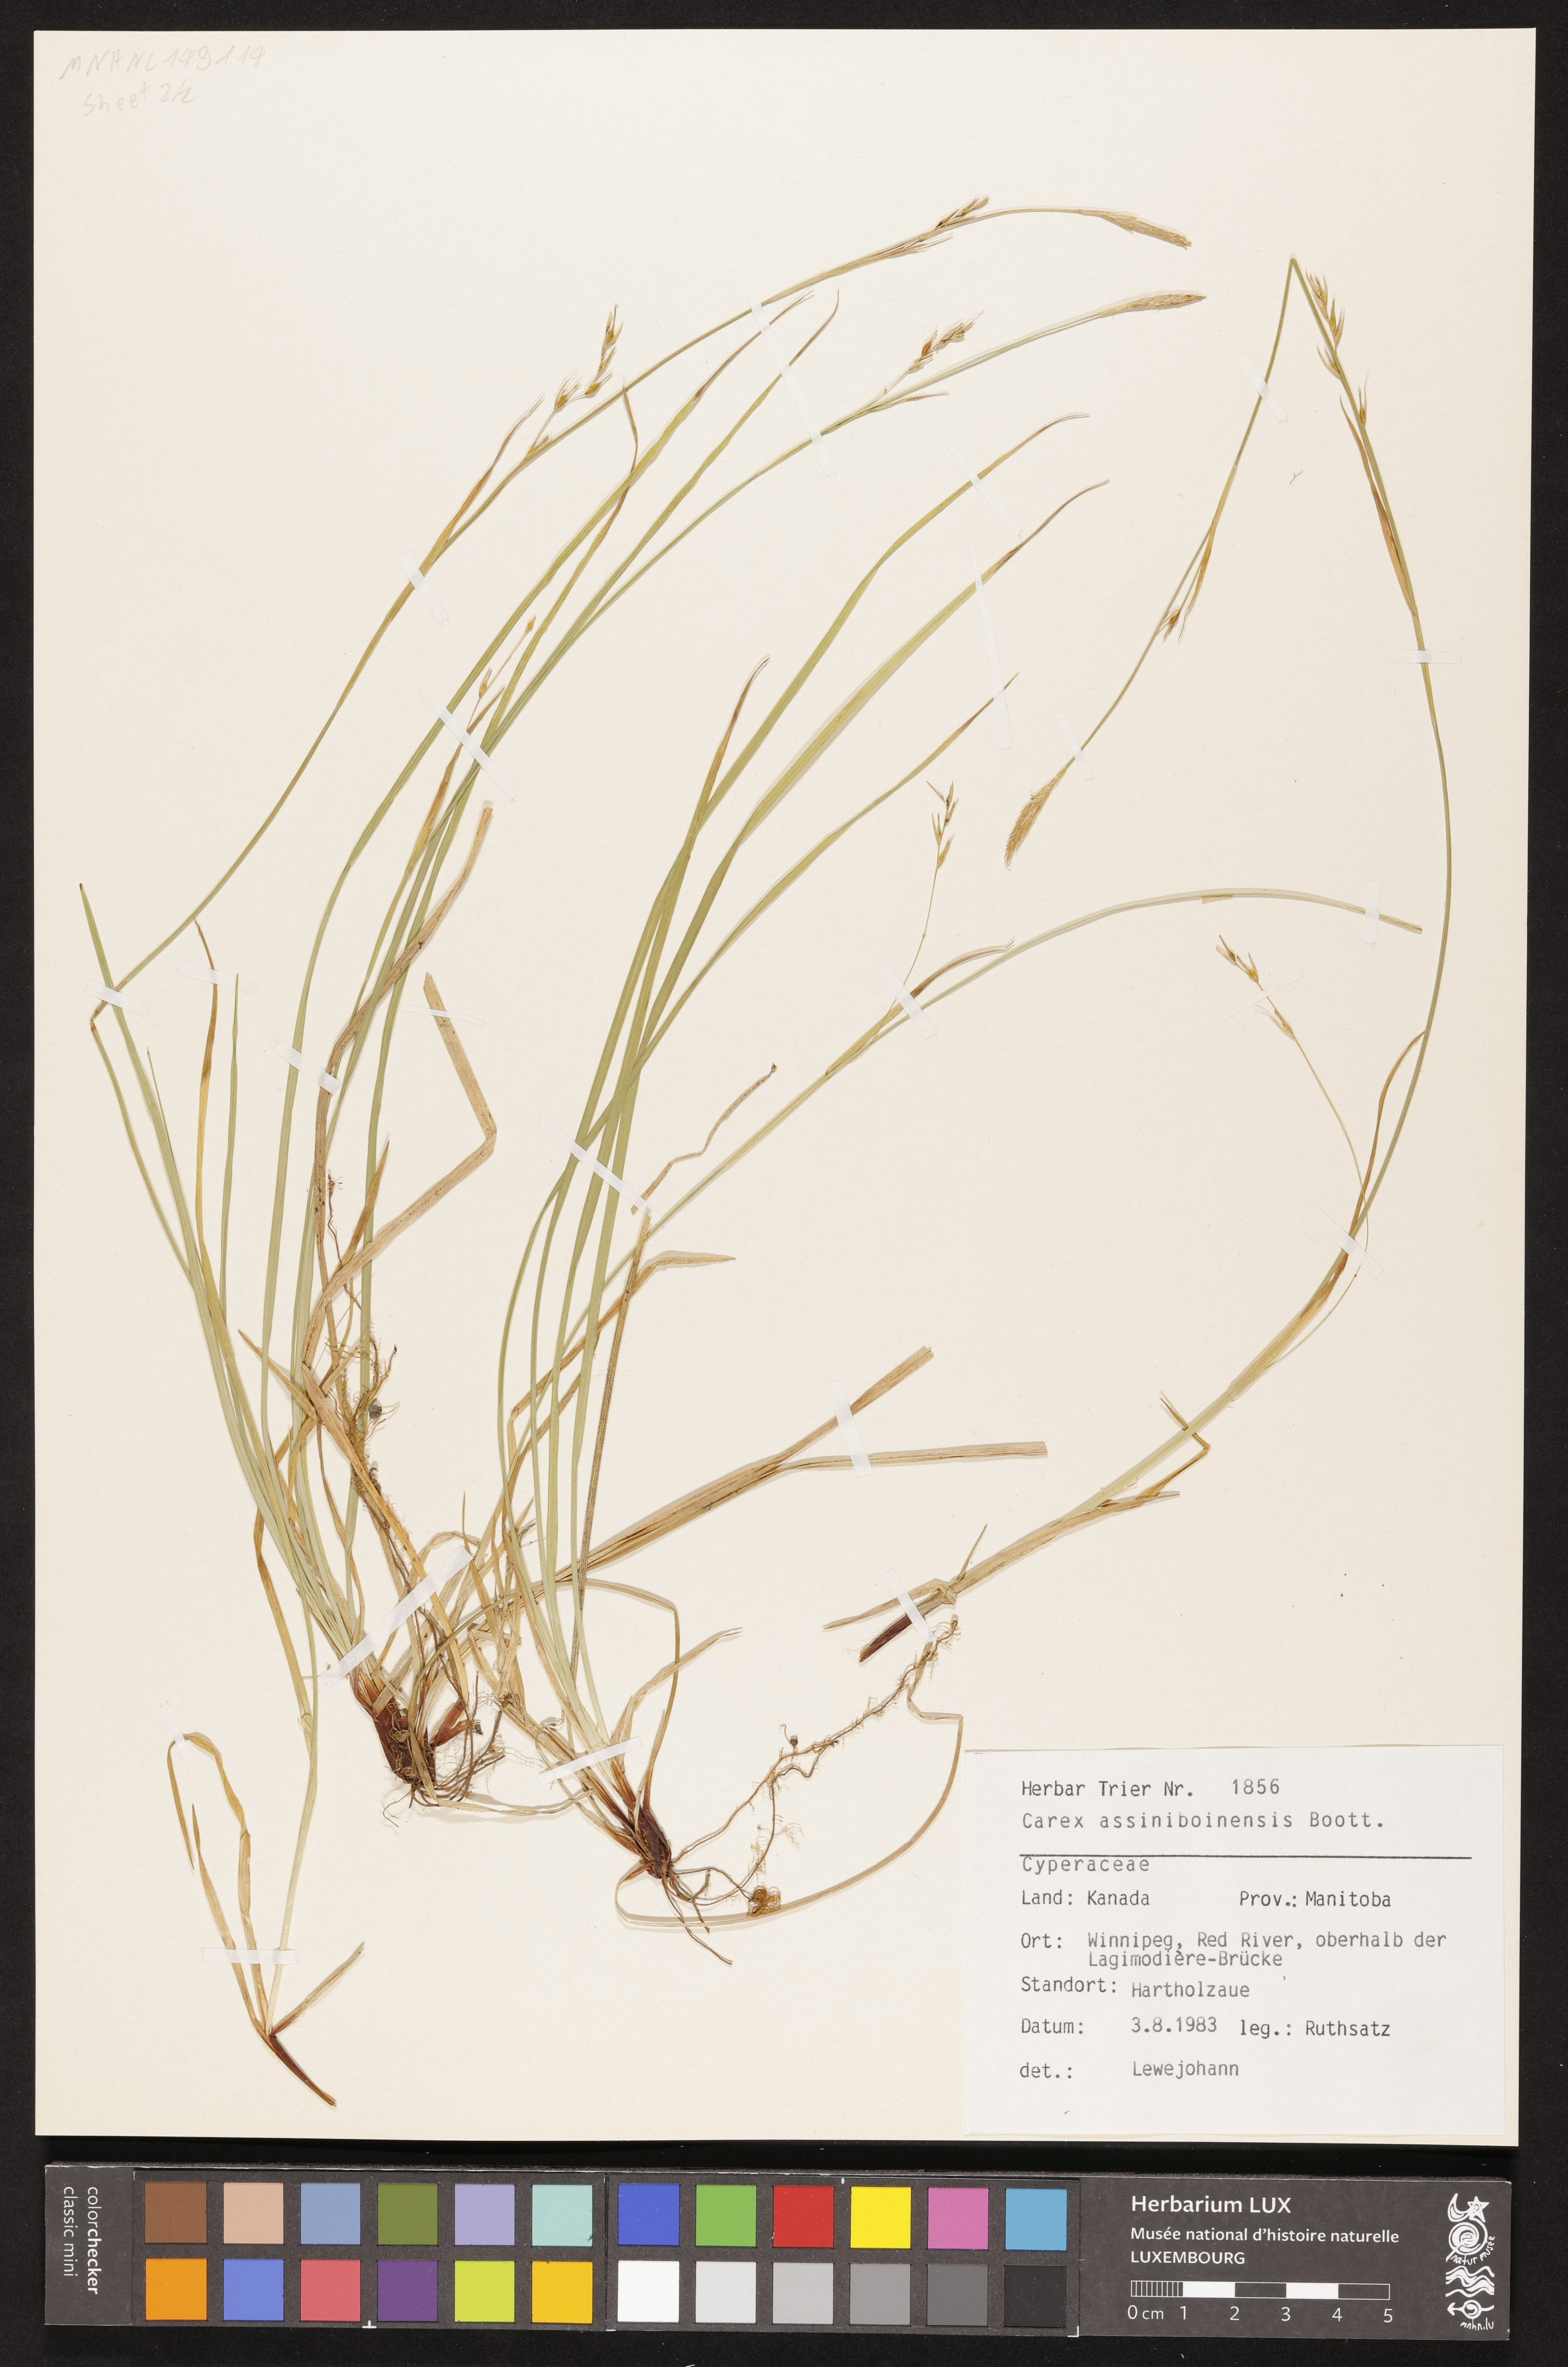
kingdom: Plantae
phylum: Tracheophyta
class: Liliopsida
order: Poales
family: Cyperaceae
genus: Carex
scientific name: Carex assiniboinensis
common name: Assiniboia sedge
